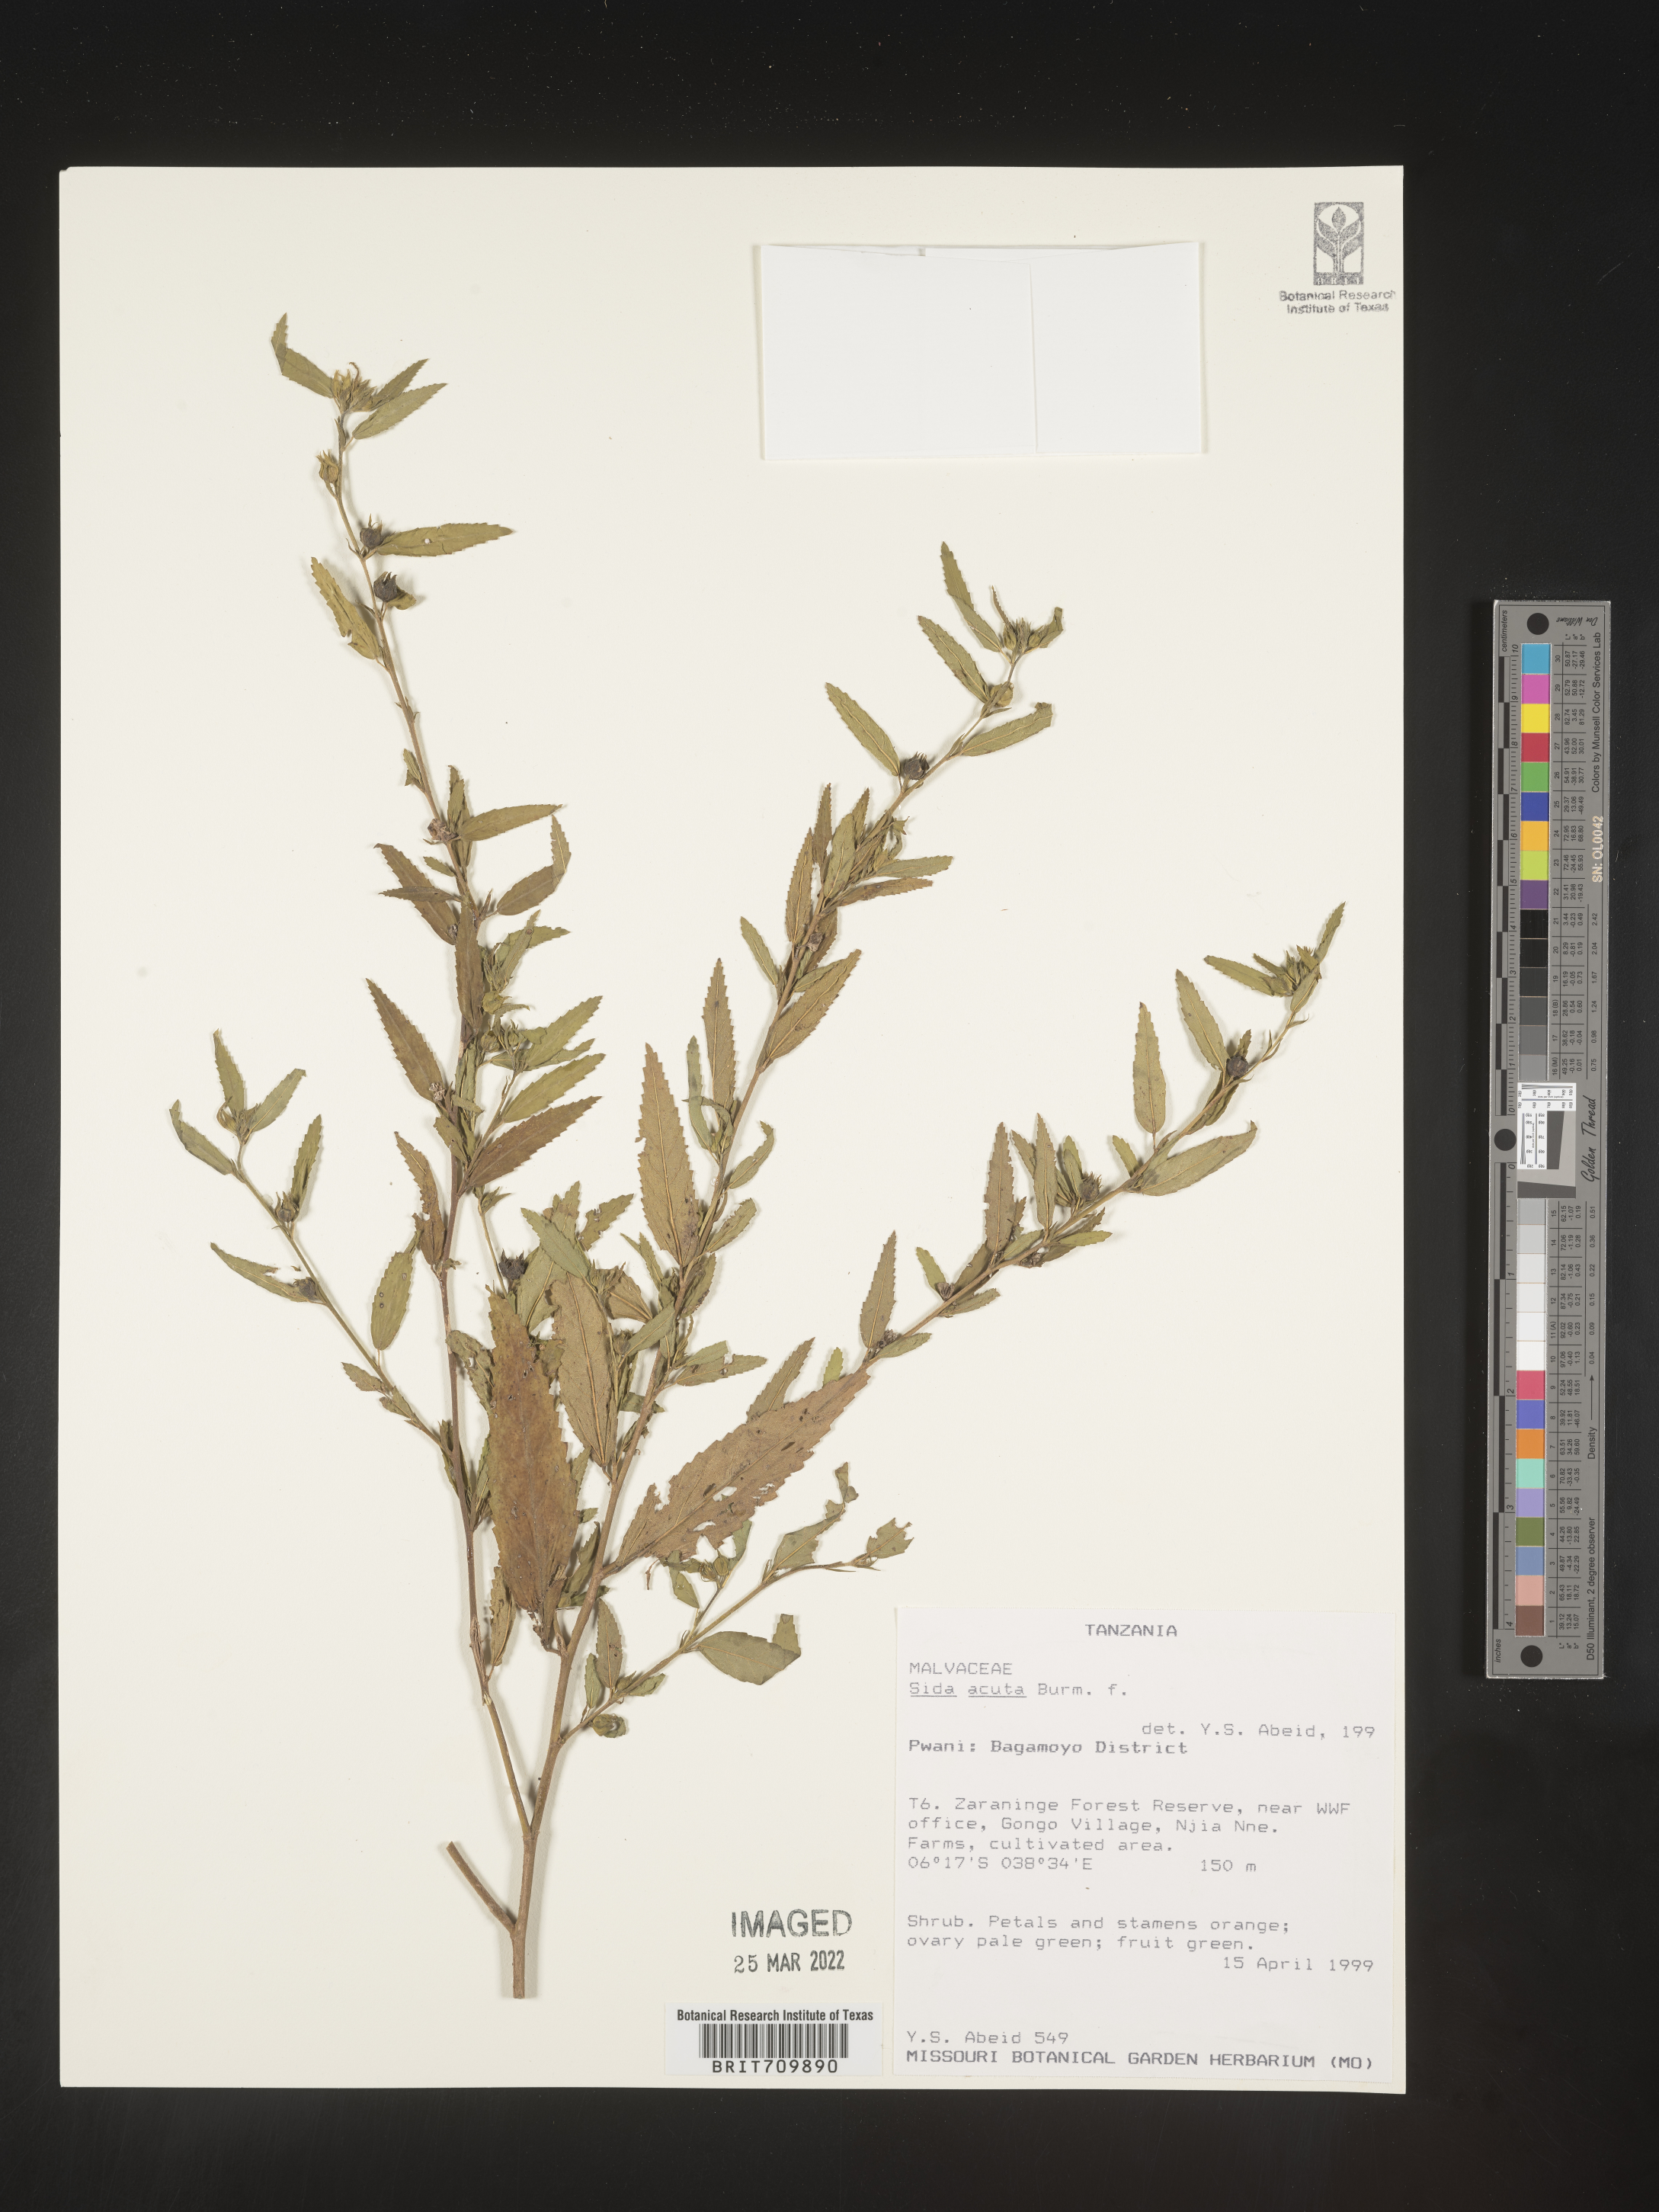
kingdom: Plantae
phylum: Tracheophyta
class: Magnoliopsida
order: Malvales
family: Malvaceae
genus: Sida
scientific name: Sida
